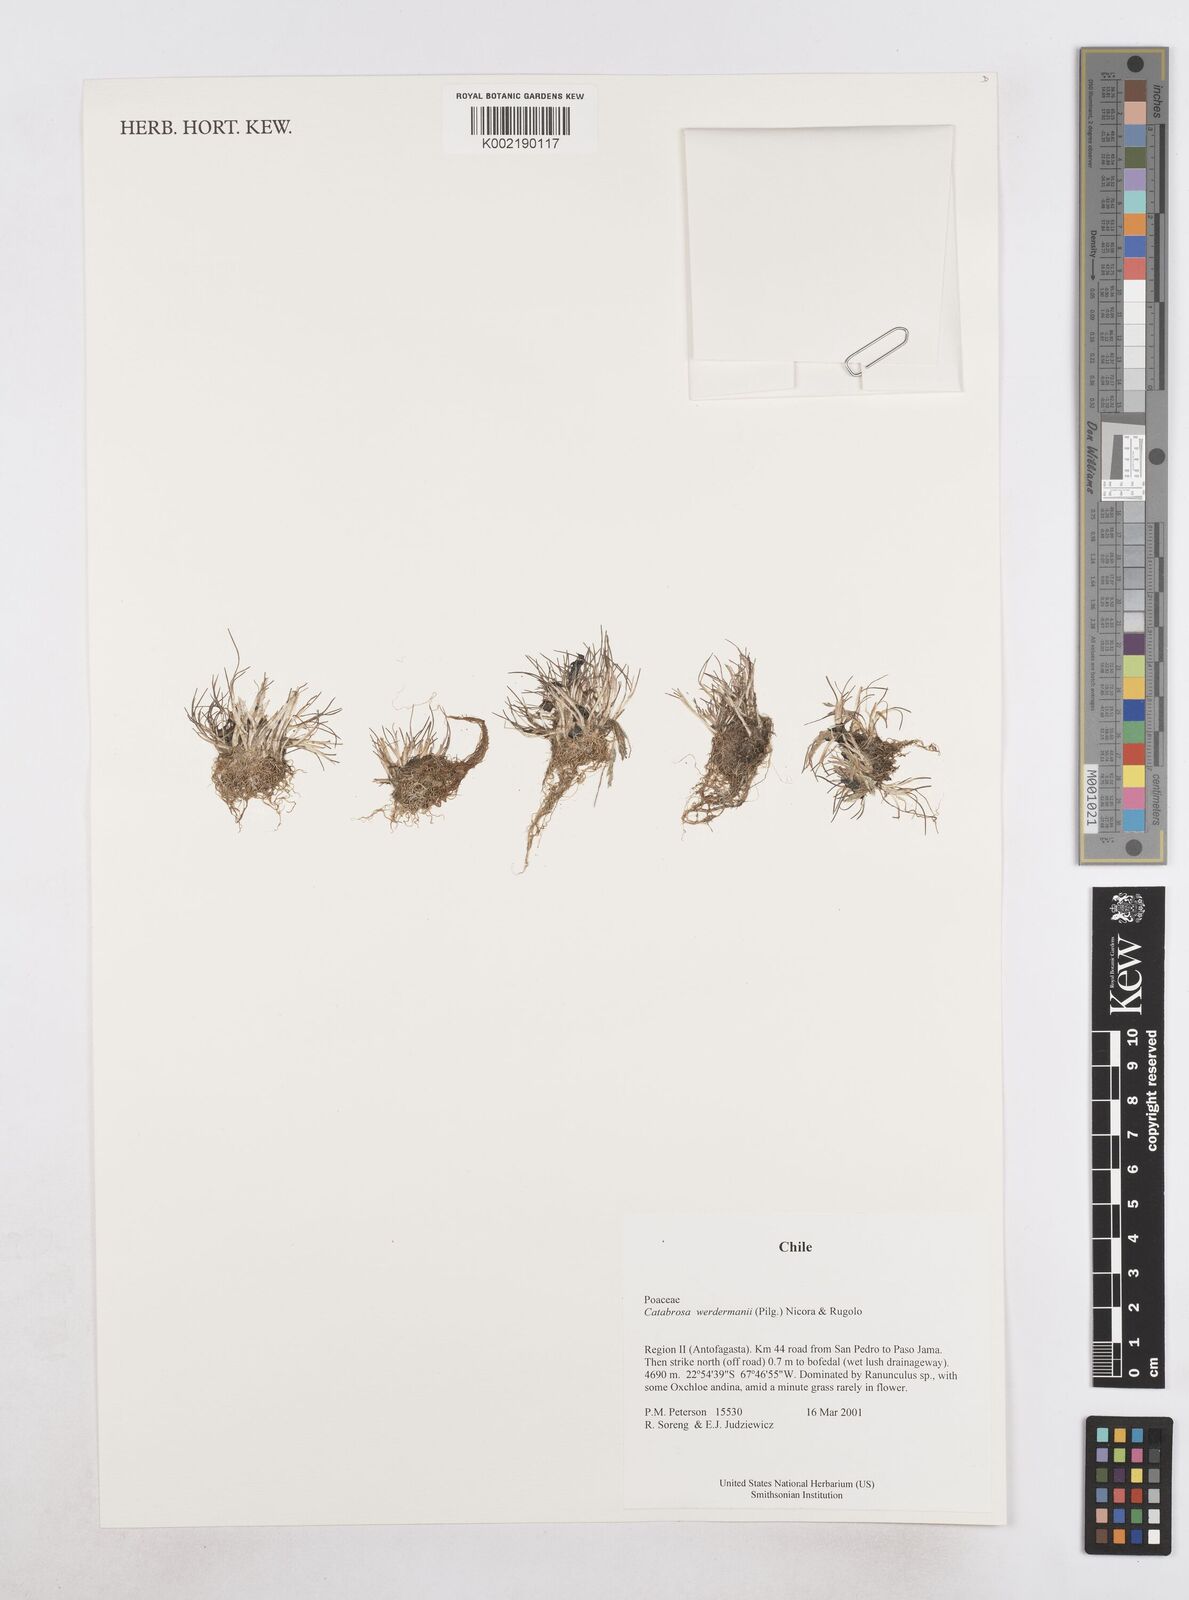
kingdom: Plantae
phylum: Tracheophyta
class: Liliopsida
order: Poales
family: Poaceae
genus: Catabrosa
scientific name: Catabrosa werdermannii
